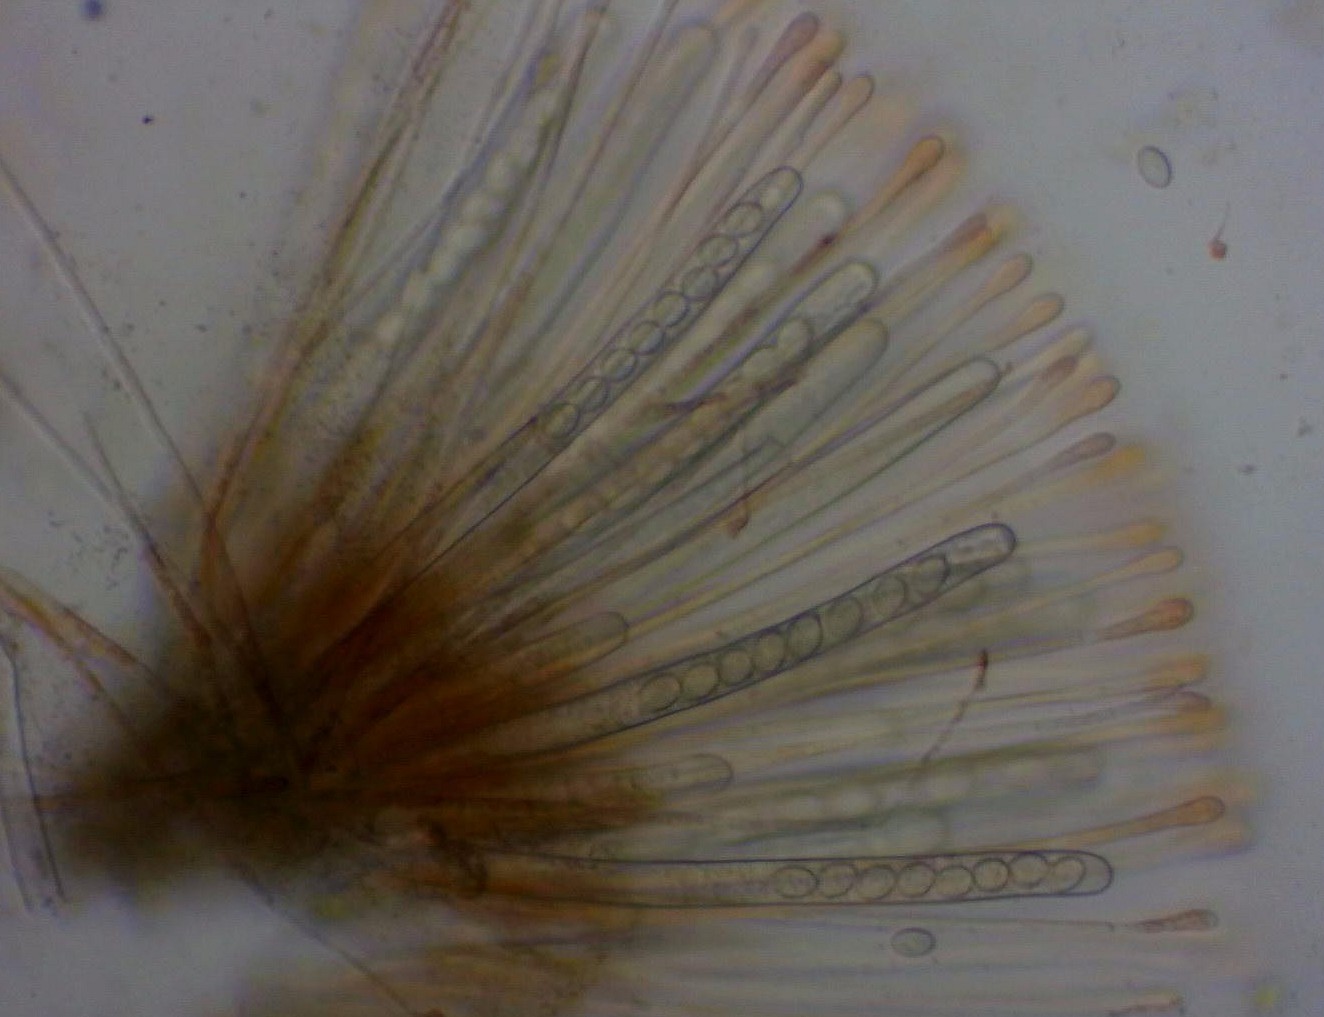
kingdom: Fungi
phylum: Ascomycota
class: Pezizomycetes
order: Pezizales
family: Pyronemataceae
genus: Scutellinia
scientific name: Scutellinia scutellata
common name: frynset skjoldbæger
